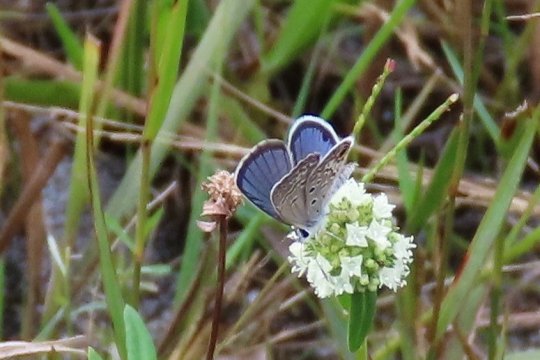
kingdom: Animalia
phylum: Arthropoda
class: Insecta
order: Lepidoptera
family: Lycaenidae
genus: Hemiargus
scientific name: Hemiargus ceraunus
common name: Ceraunus Blue
